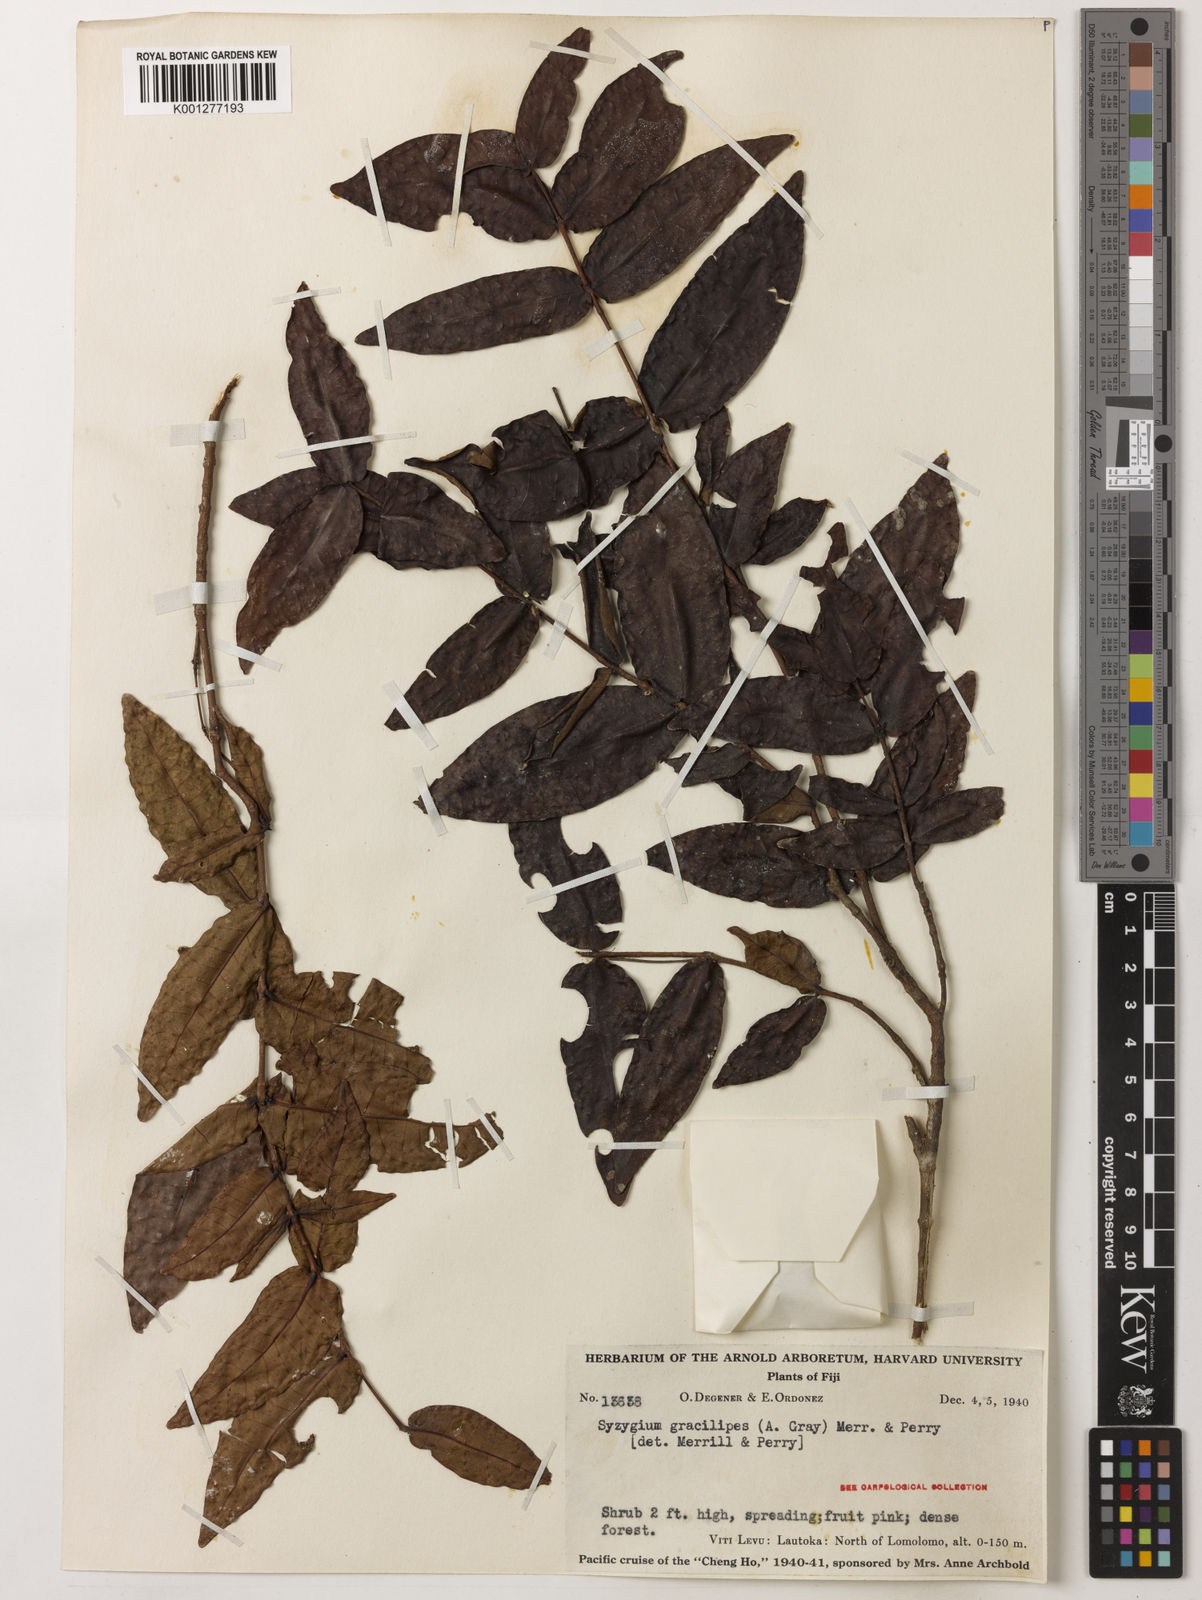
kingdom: Plantae
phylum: Tracheophyta
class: Magnoliopsida
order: Myrtales
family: Myrtaceae
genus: Syzygium
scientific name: Syzygium gracilipes
